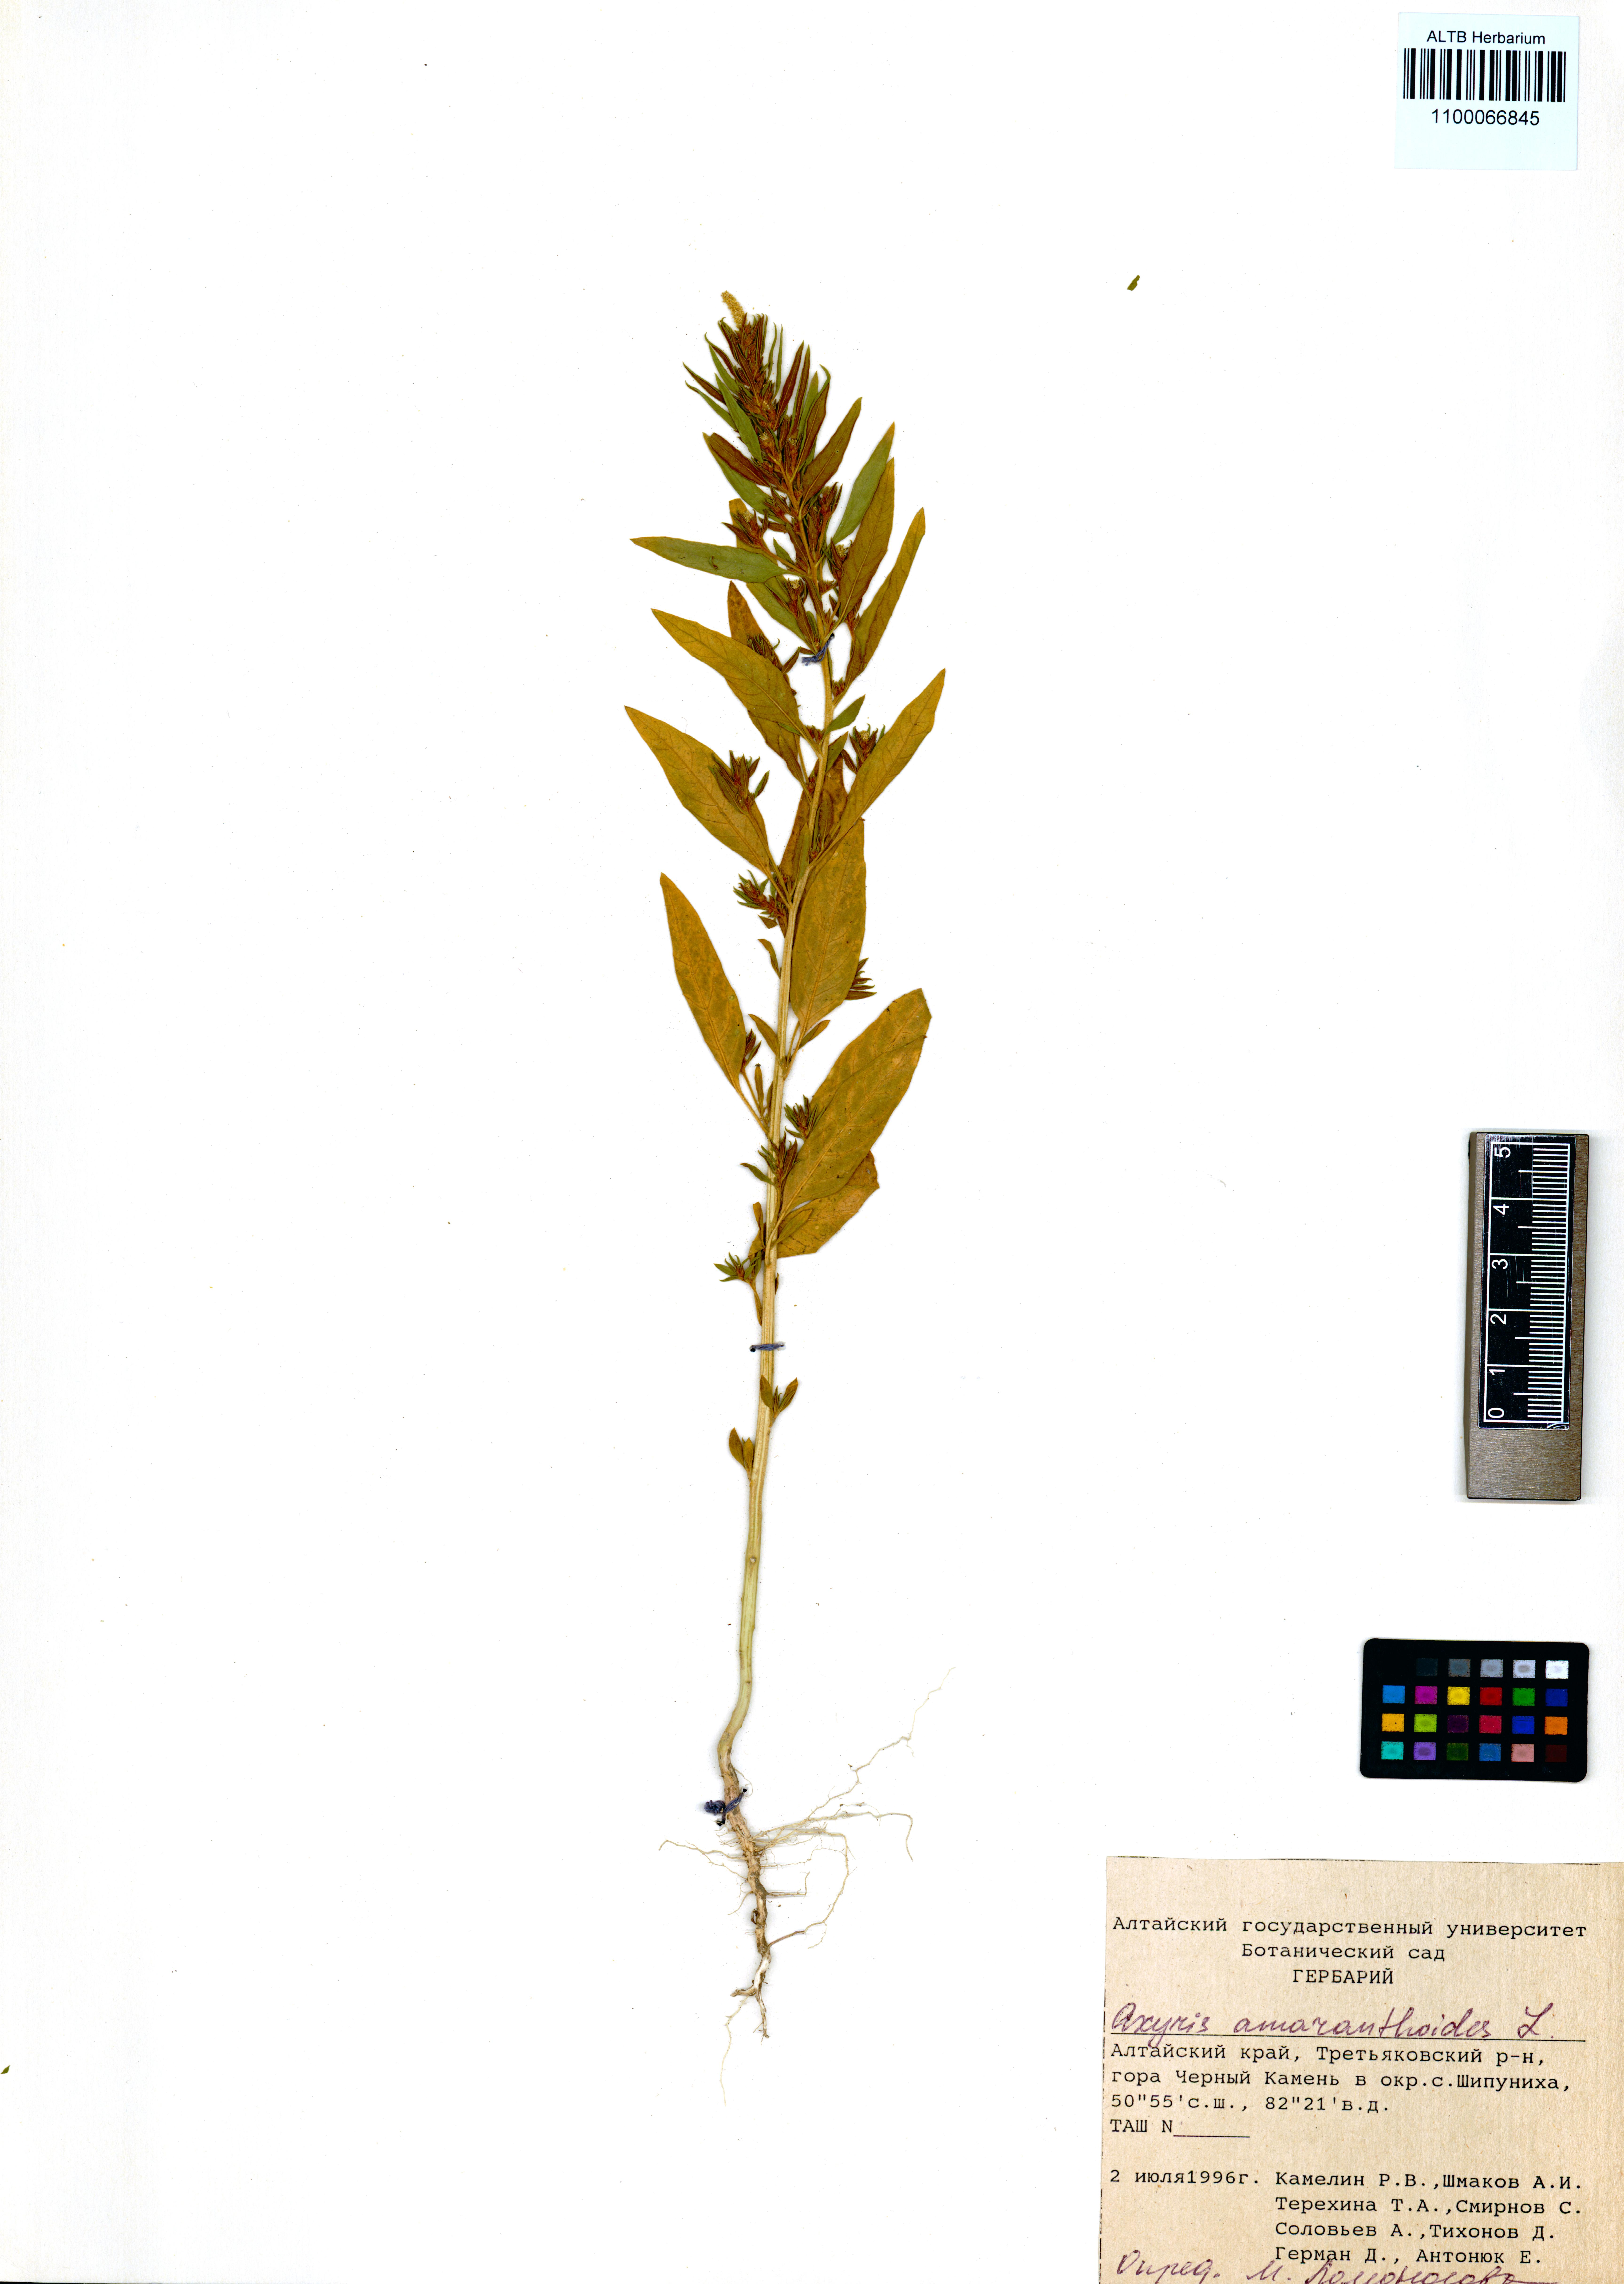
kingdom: Plantae
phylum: Tracheophyta
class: Magnoliopsida
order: Caryophyllales
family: Amaranthaceae
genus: Axyris
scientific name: Axyris amaranthoides
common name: Russian pigweed
